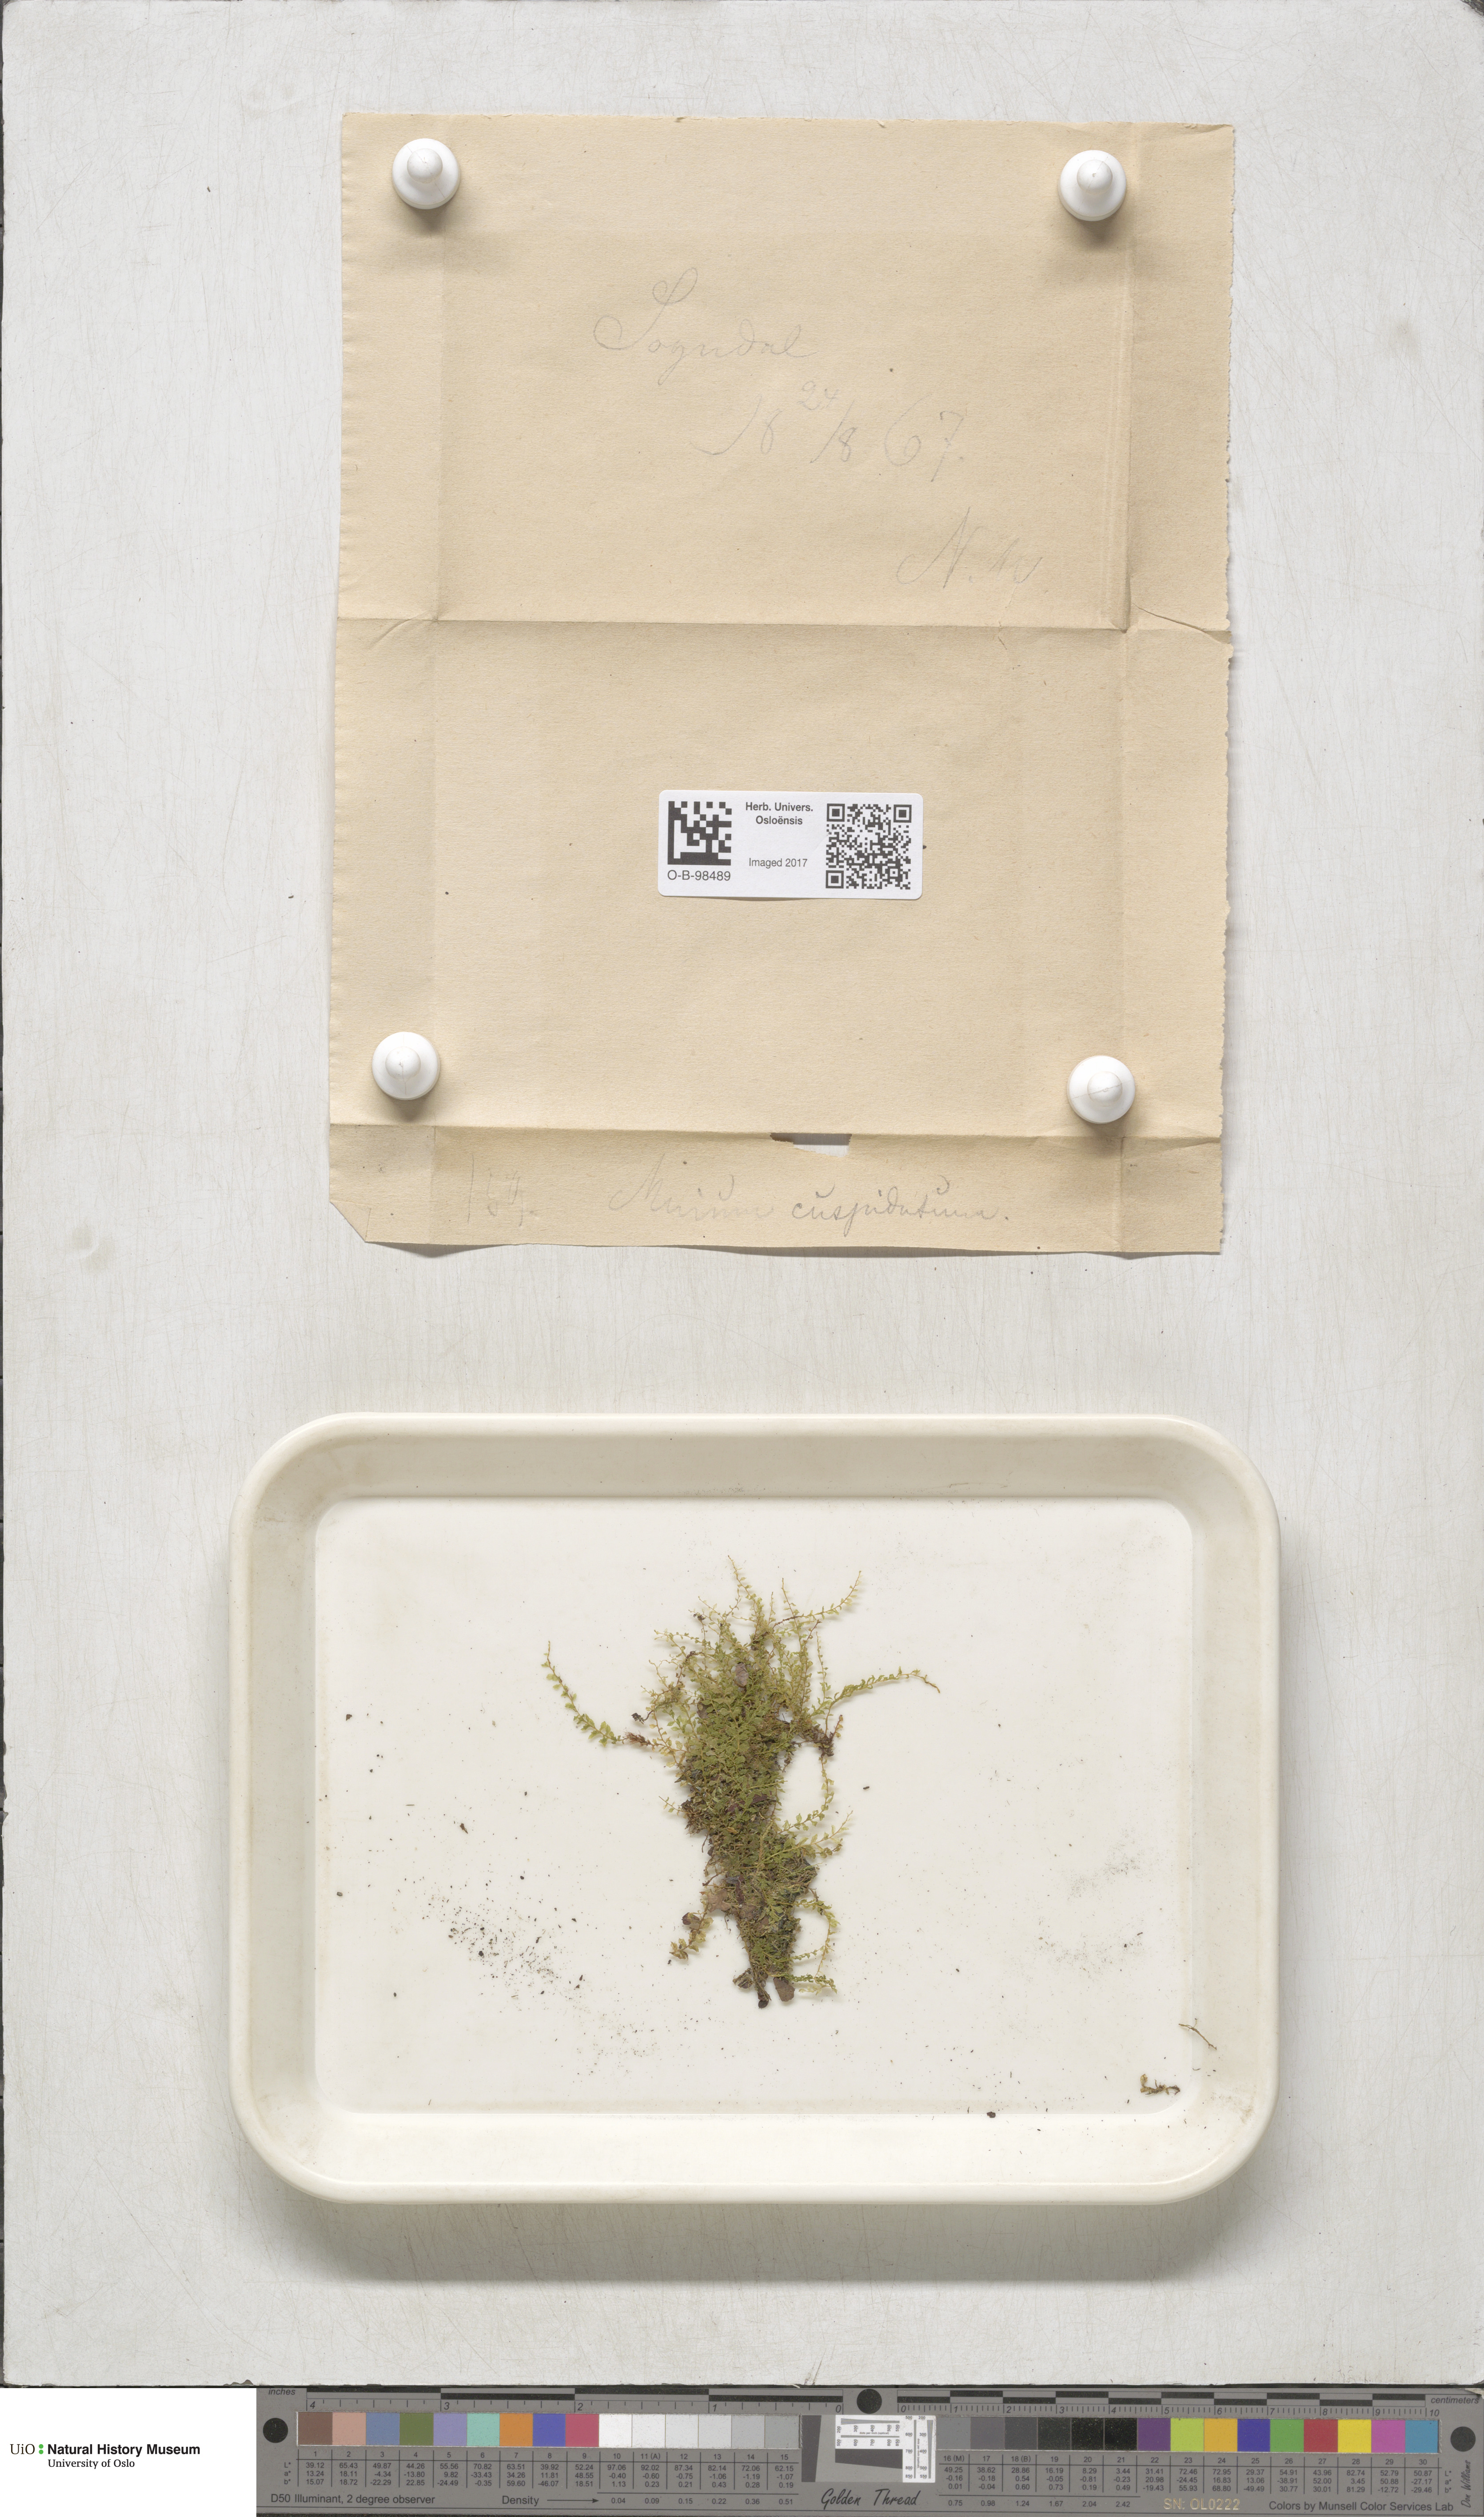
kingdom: Plantae
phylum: Bryophyta
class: Bryopsida
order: Bryales
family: Mniaceae
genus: Plagiomnium
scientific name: Plagiomnium cuspidatum
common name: Woodsy leafy moss
